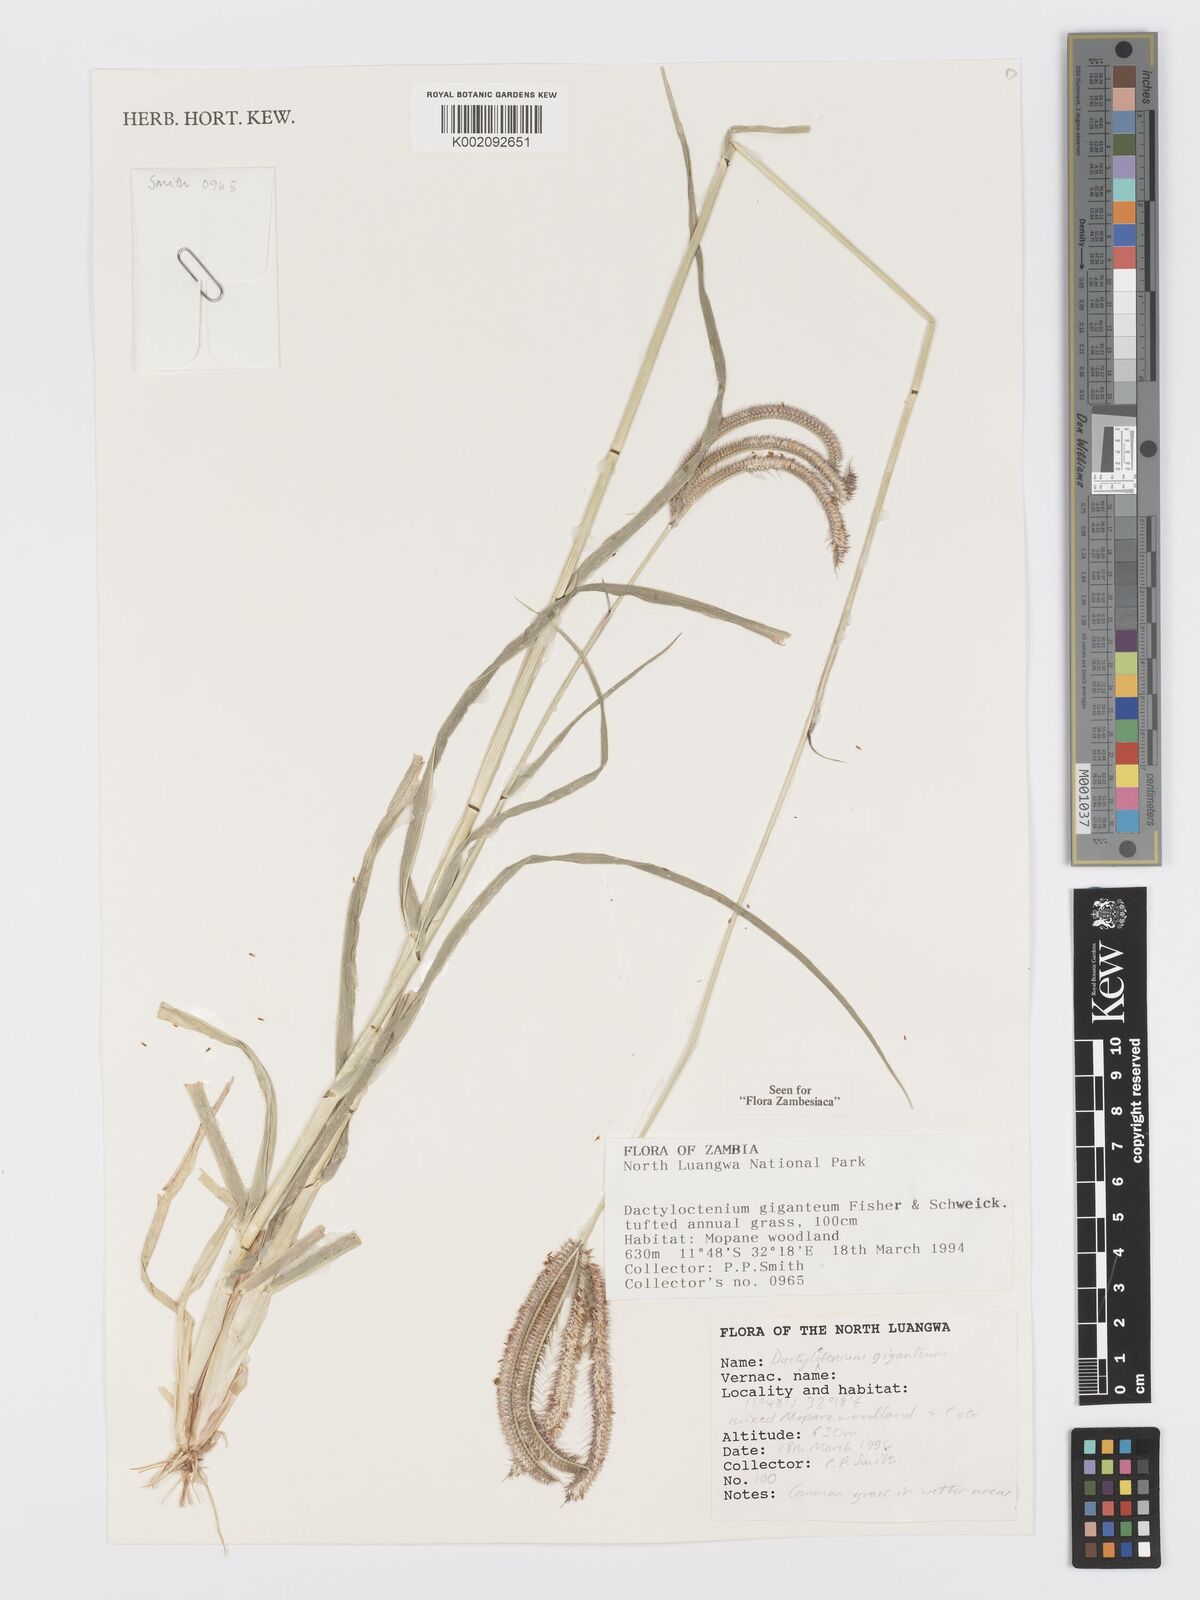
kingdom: Plantae
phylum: Tracheophyta
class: Liliopsida
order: Poales
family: Poaceae
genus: Dactyloctenium
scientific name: Dactyloctenium giganteum
